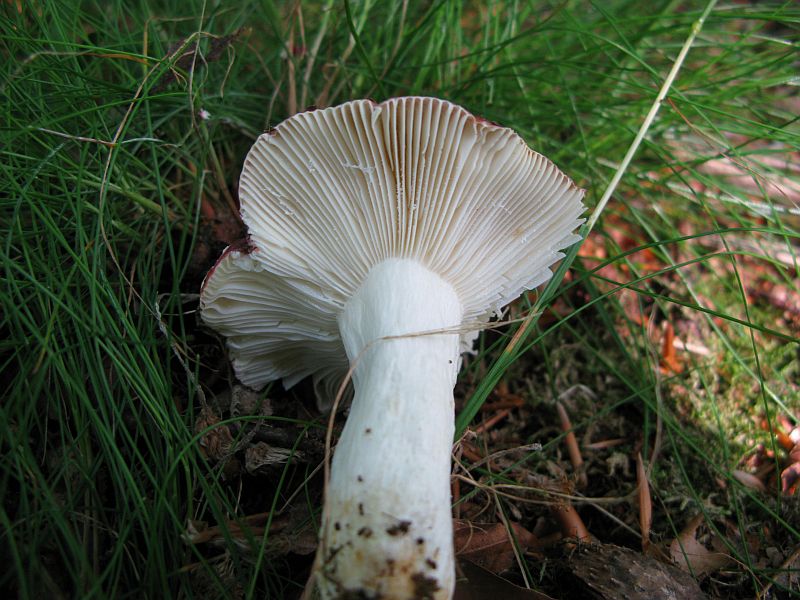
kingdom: Fungi
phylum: Basidiomycota
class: Agaricomycetes
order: Russulales
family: Russulaceae
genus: Russula
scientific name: Russula atropurpurea
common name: purpurbroget skørhat
